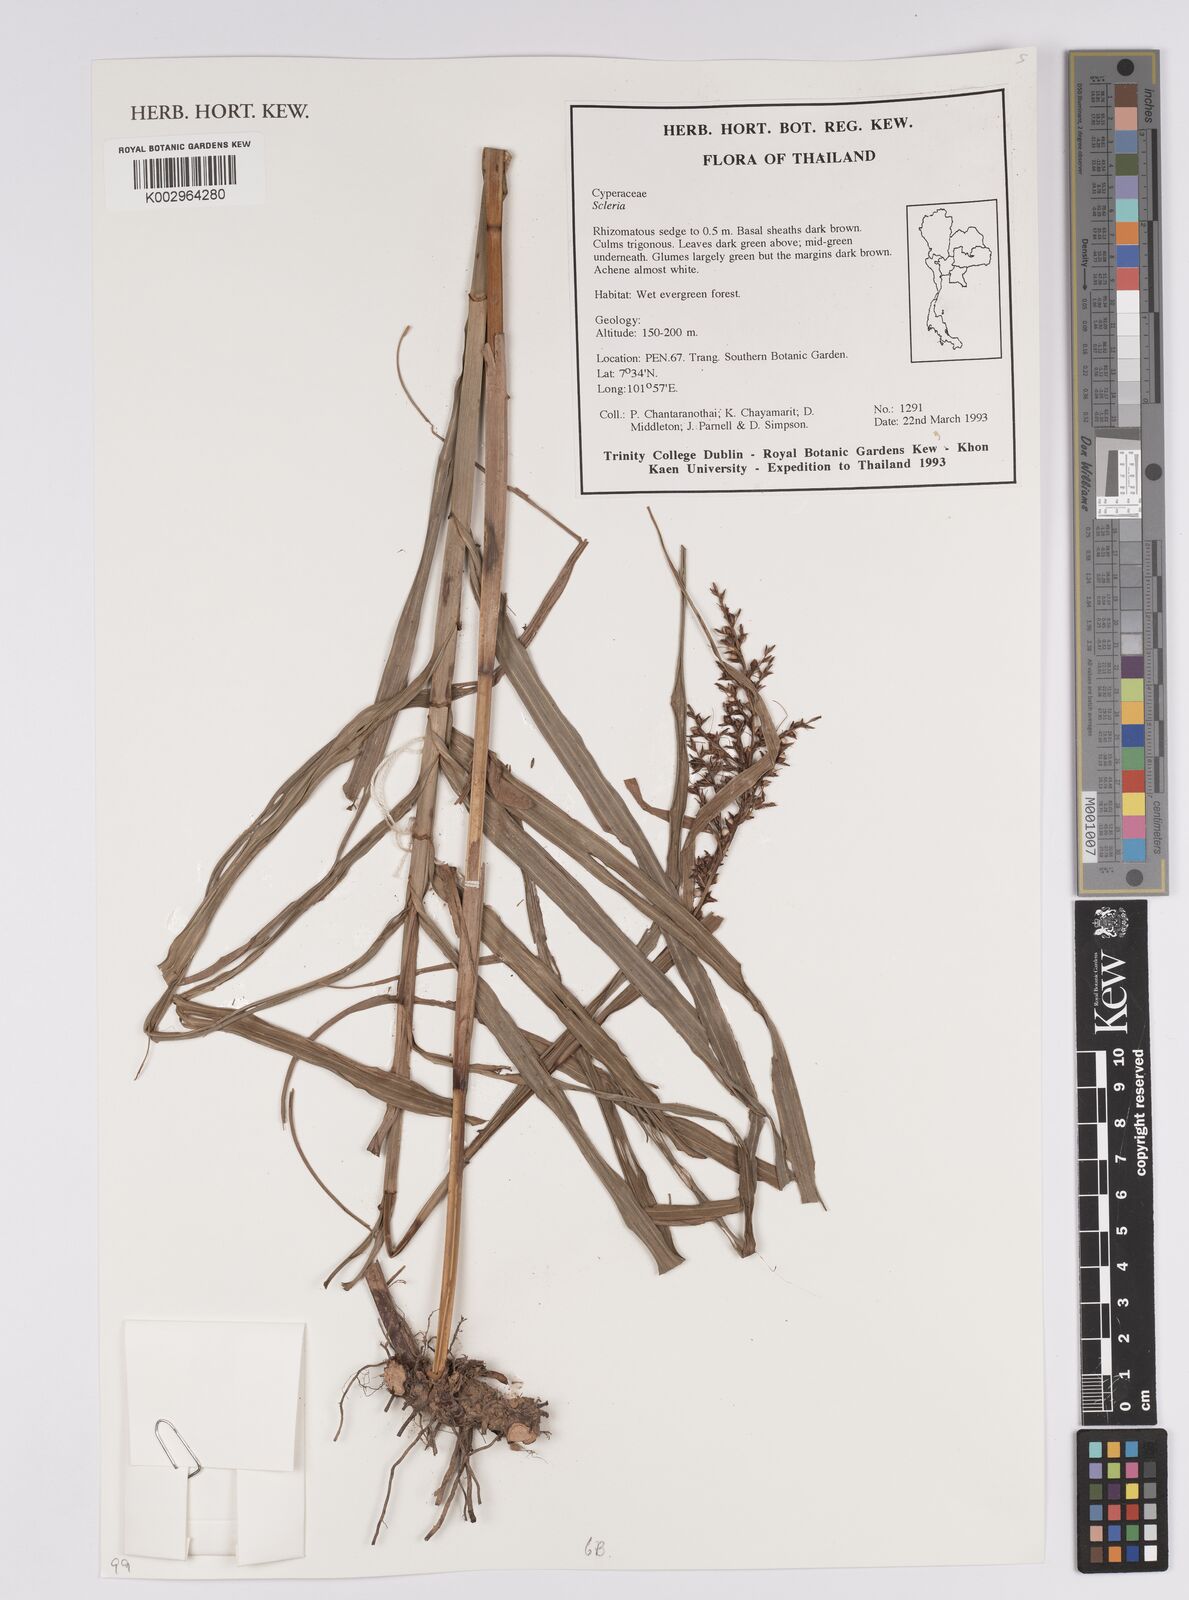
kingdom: Plantae
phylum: Tracheophyta
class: Liliopsida
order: Poales
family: Cyperaceae
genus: Scleria
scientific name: Scleria
